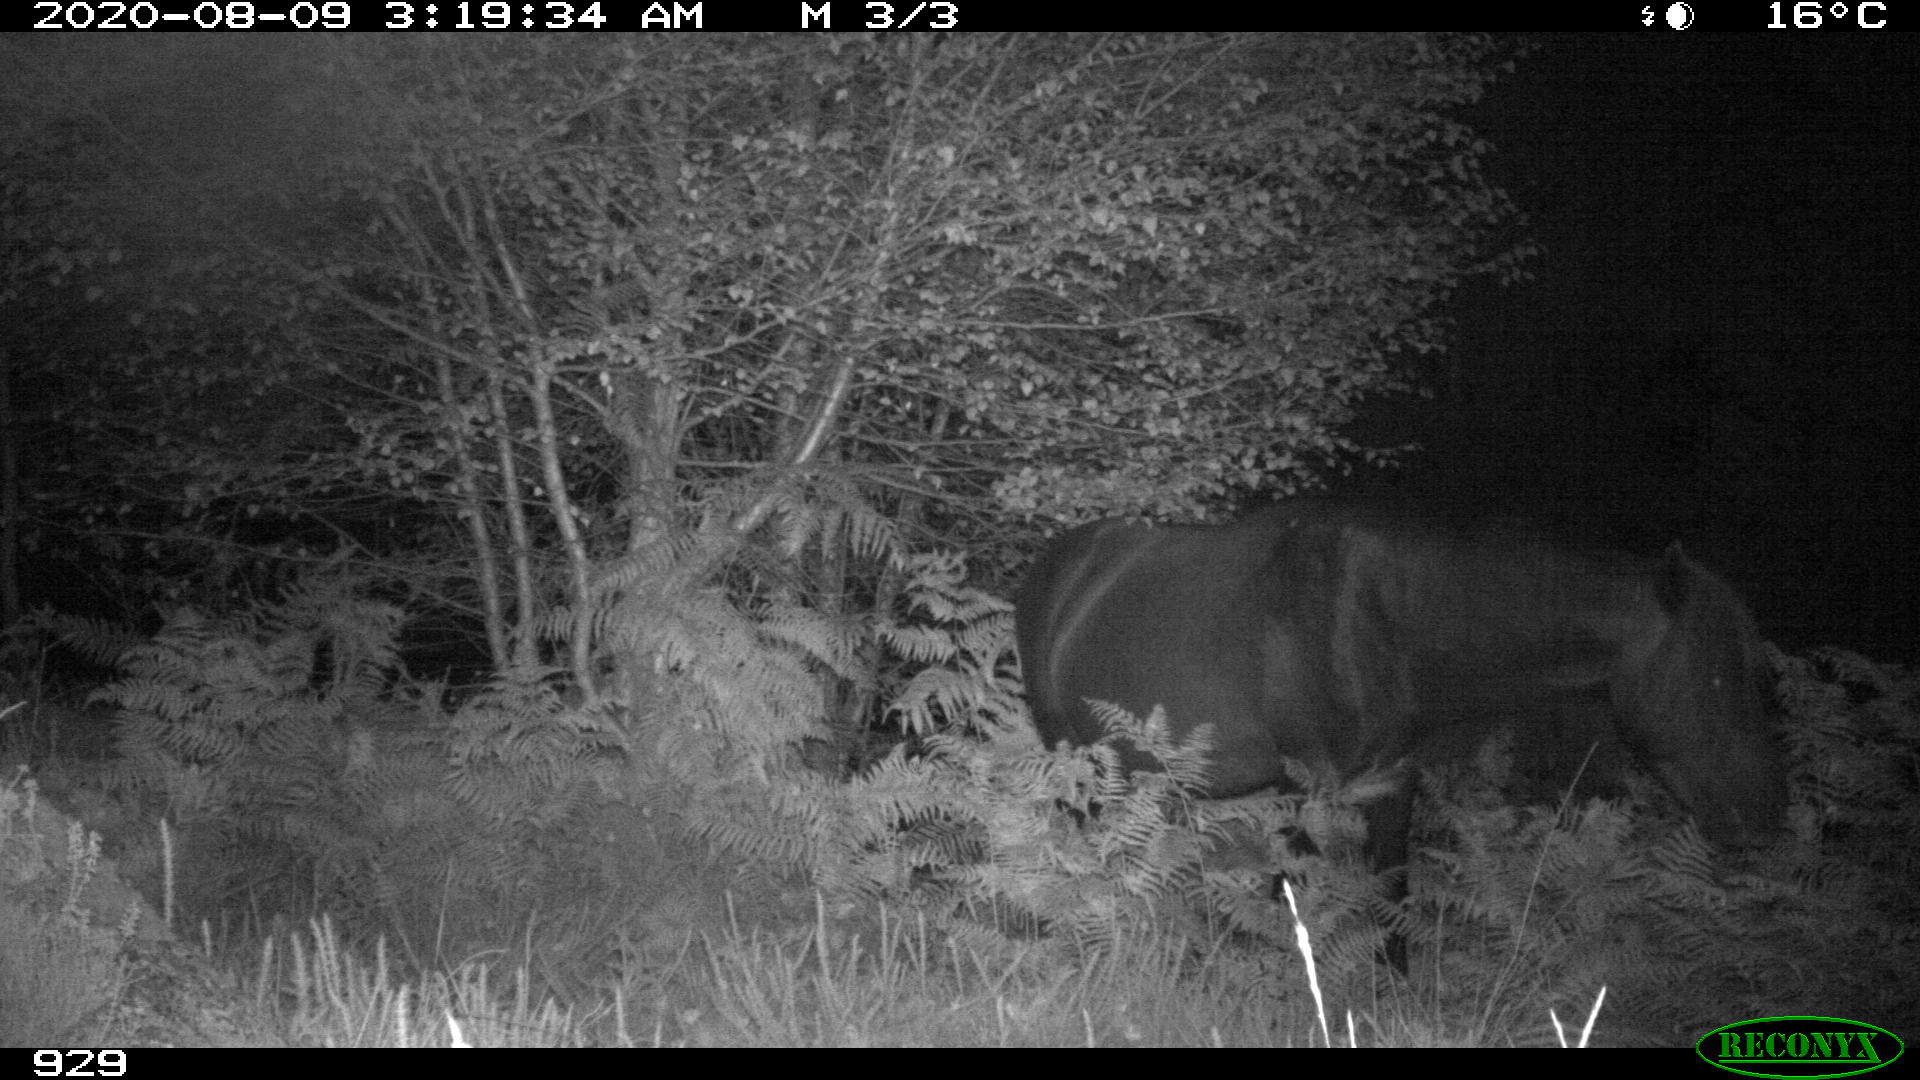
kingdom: Animalia
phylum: Chordata
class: Mammalia
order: Perissodactyla
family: Equidae
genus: Equus
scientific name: Equus caballus
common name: Horse
